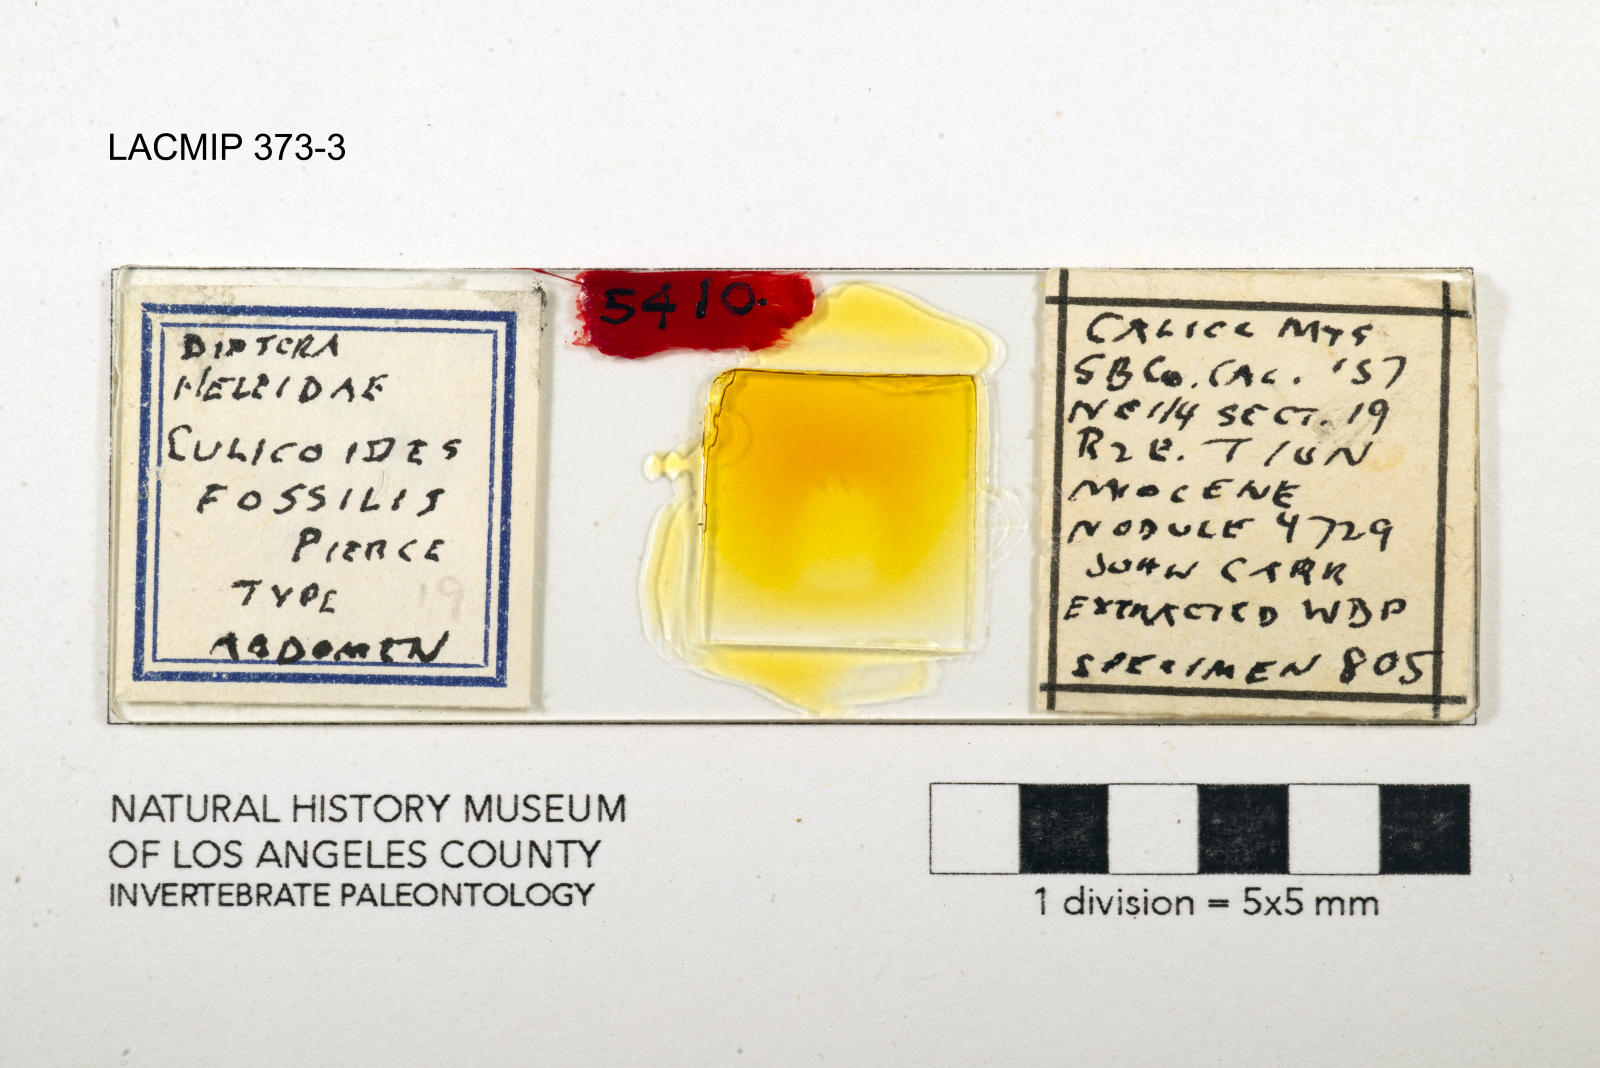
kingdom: Animalia
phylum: Arthropoda
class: Insecta
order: Diptera
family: Ceratopogonidae
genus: Culicoides
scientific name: Culicoides fossilis
